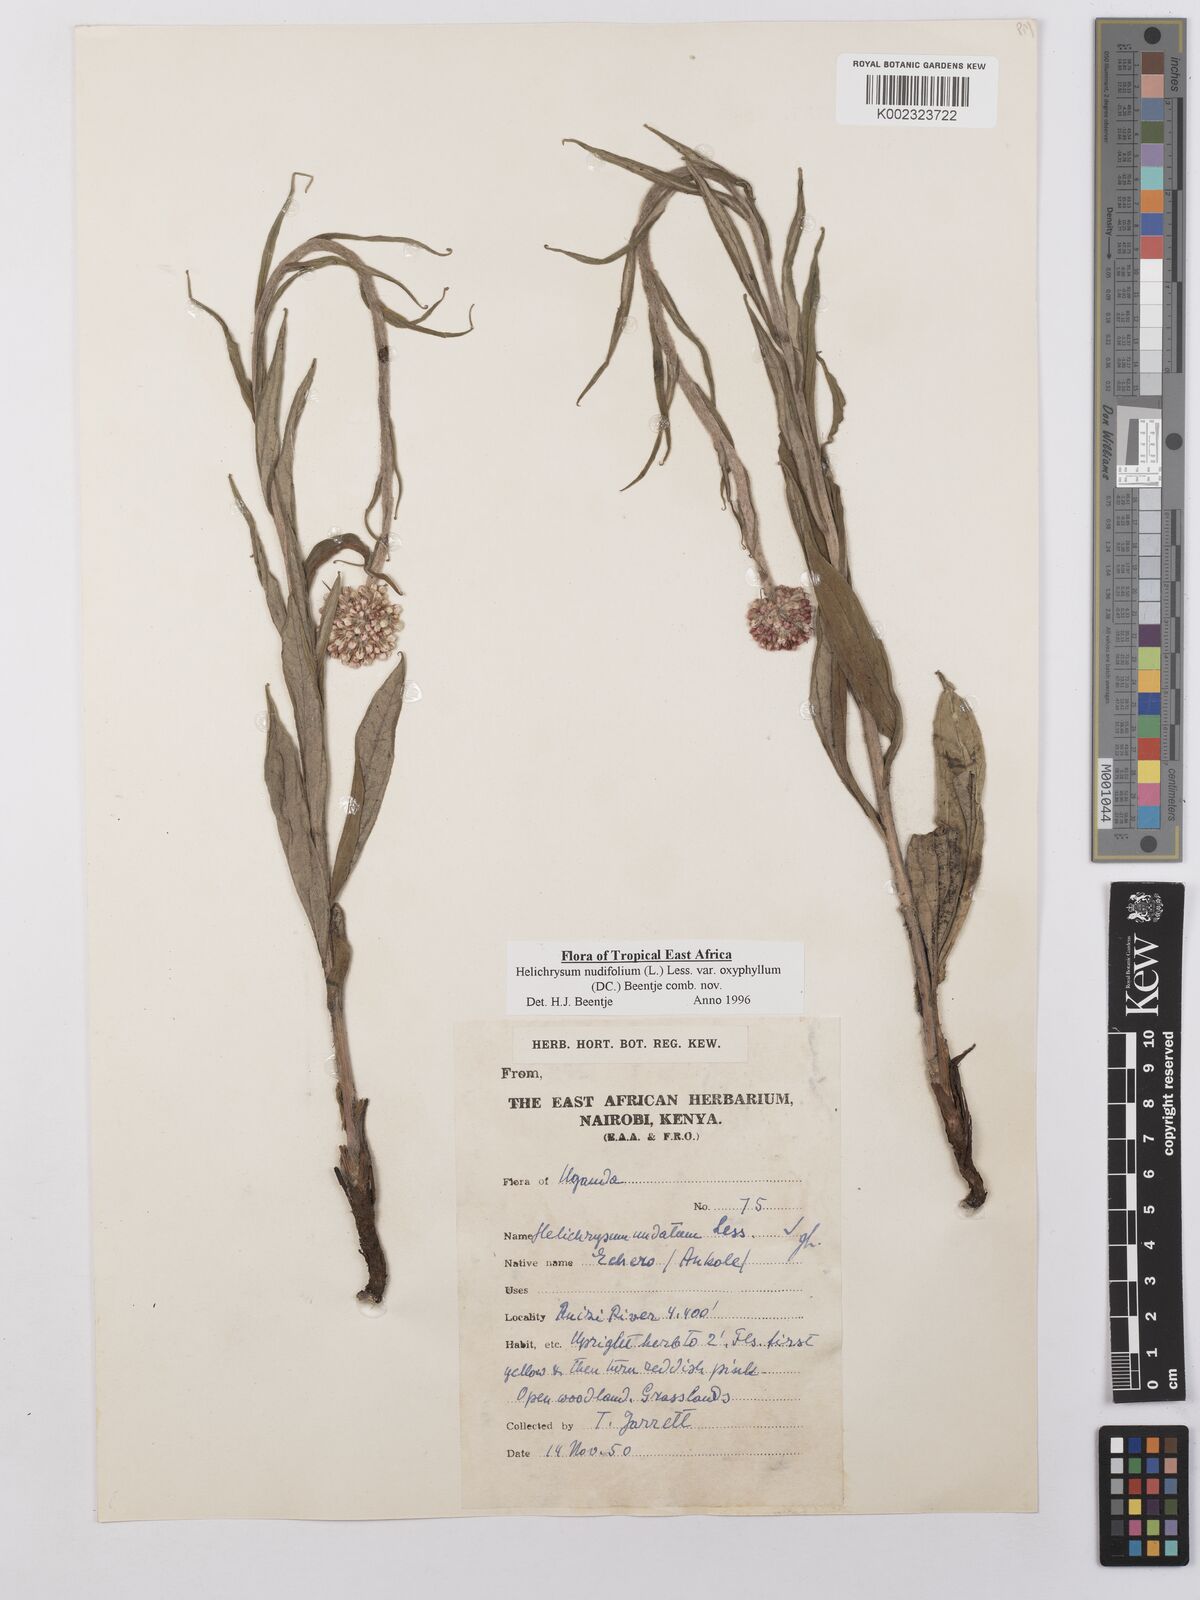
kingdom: Plantae
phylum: Tracheophyta
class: Magnoliopsida
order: Asterales
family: Asteraceae
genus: Helichrysum
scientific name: Helichrysum nudifolium
